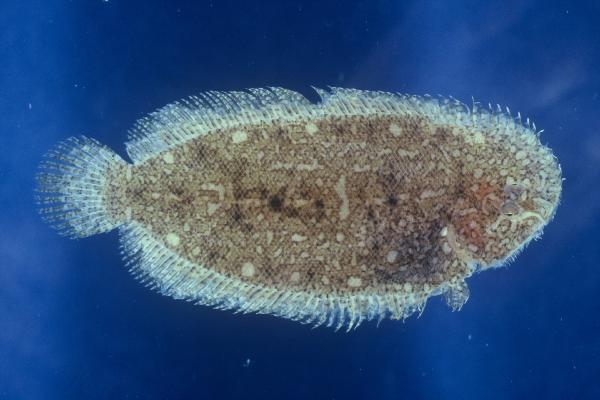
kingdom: Animalia
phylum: Chordata
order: Pleuronectiformes
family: Soleidae
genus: Aseraggodes
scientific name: Aseraggodes xenicus
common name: Dwarf sole
